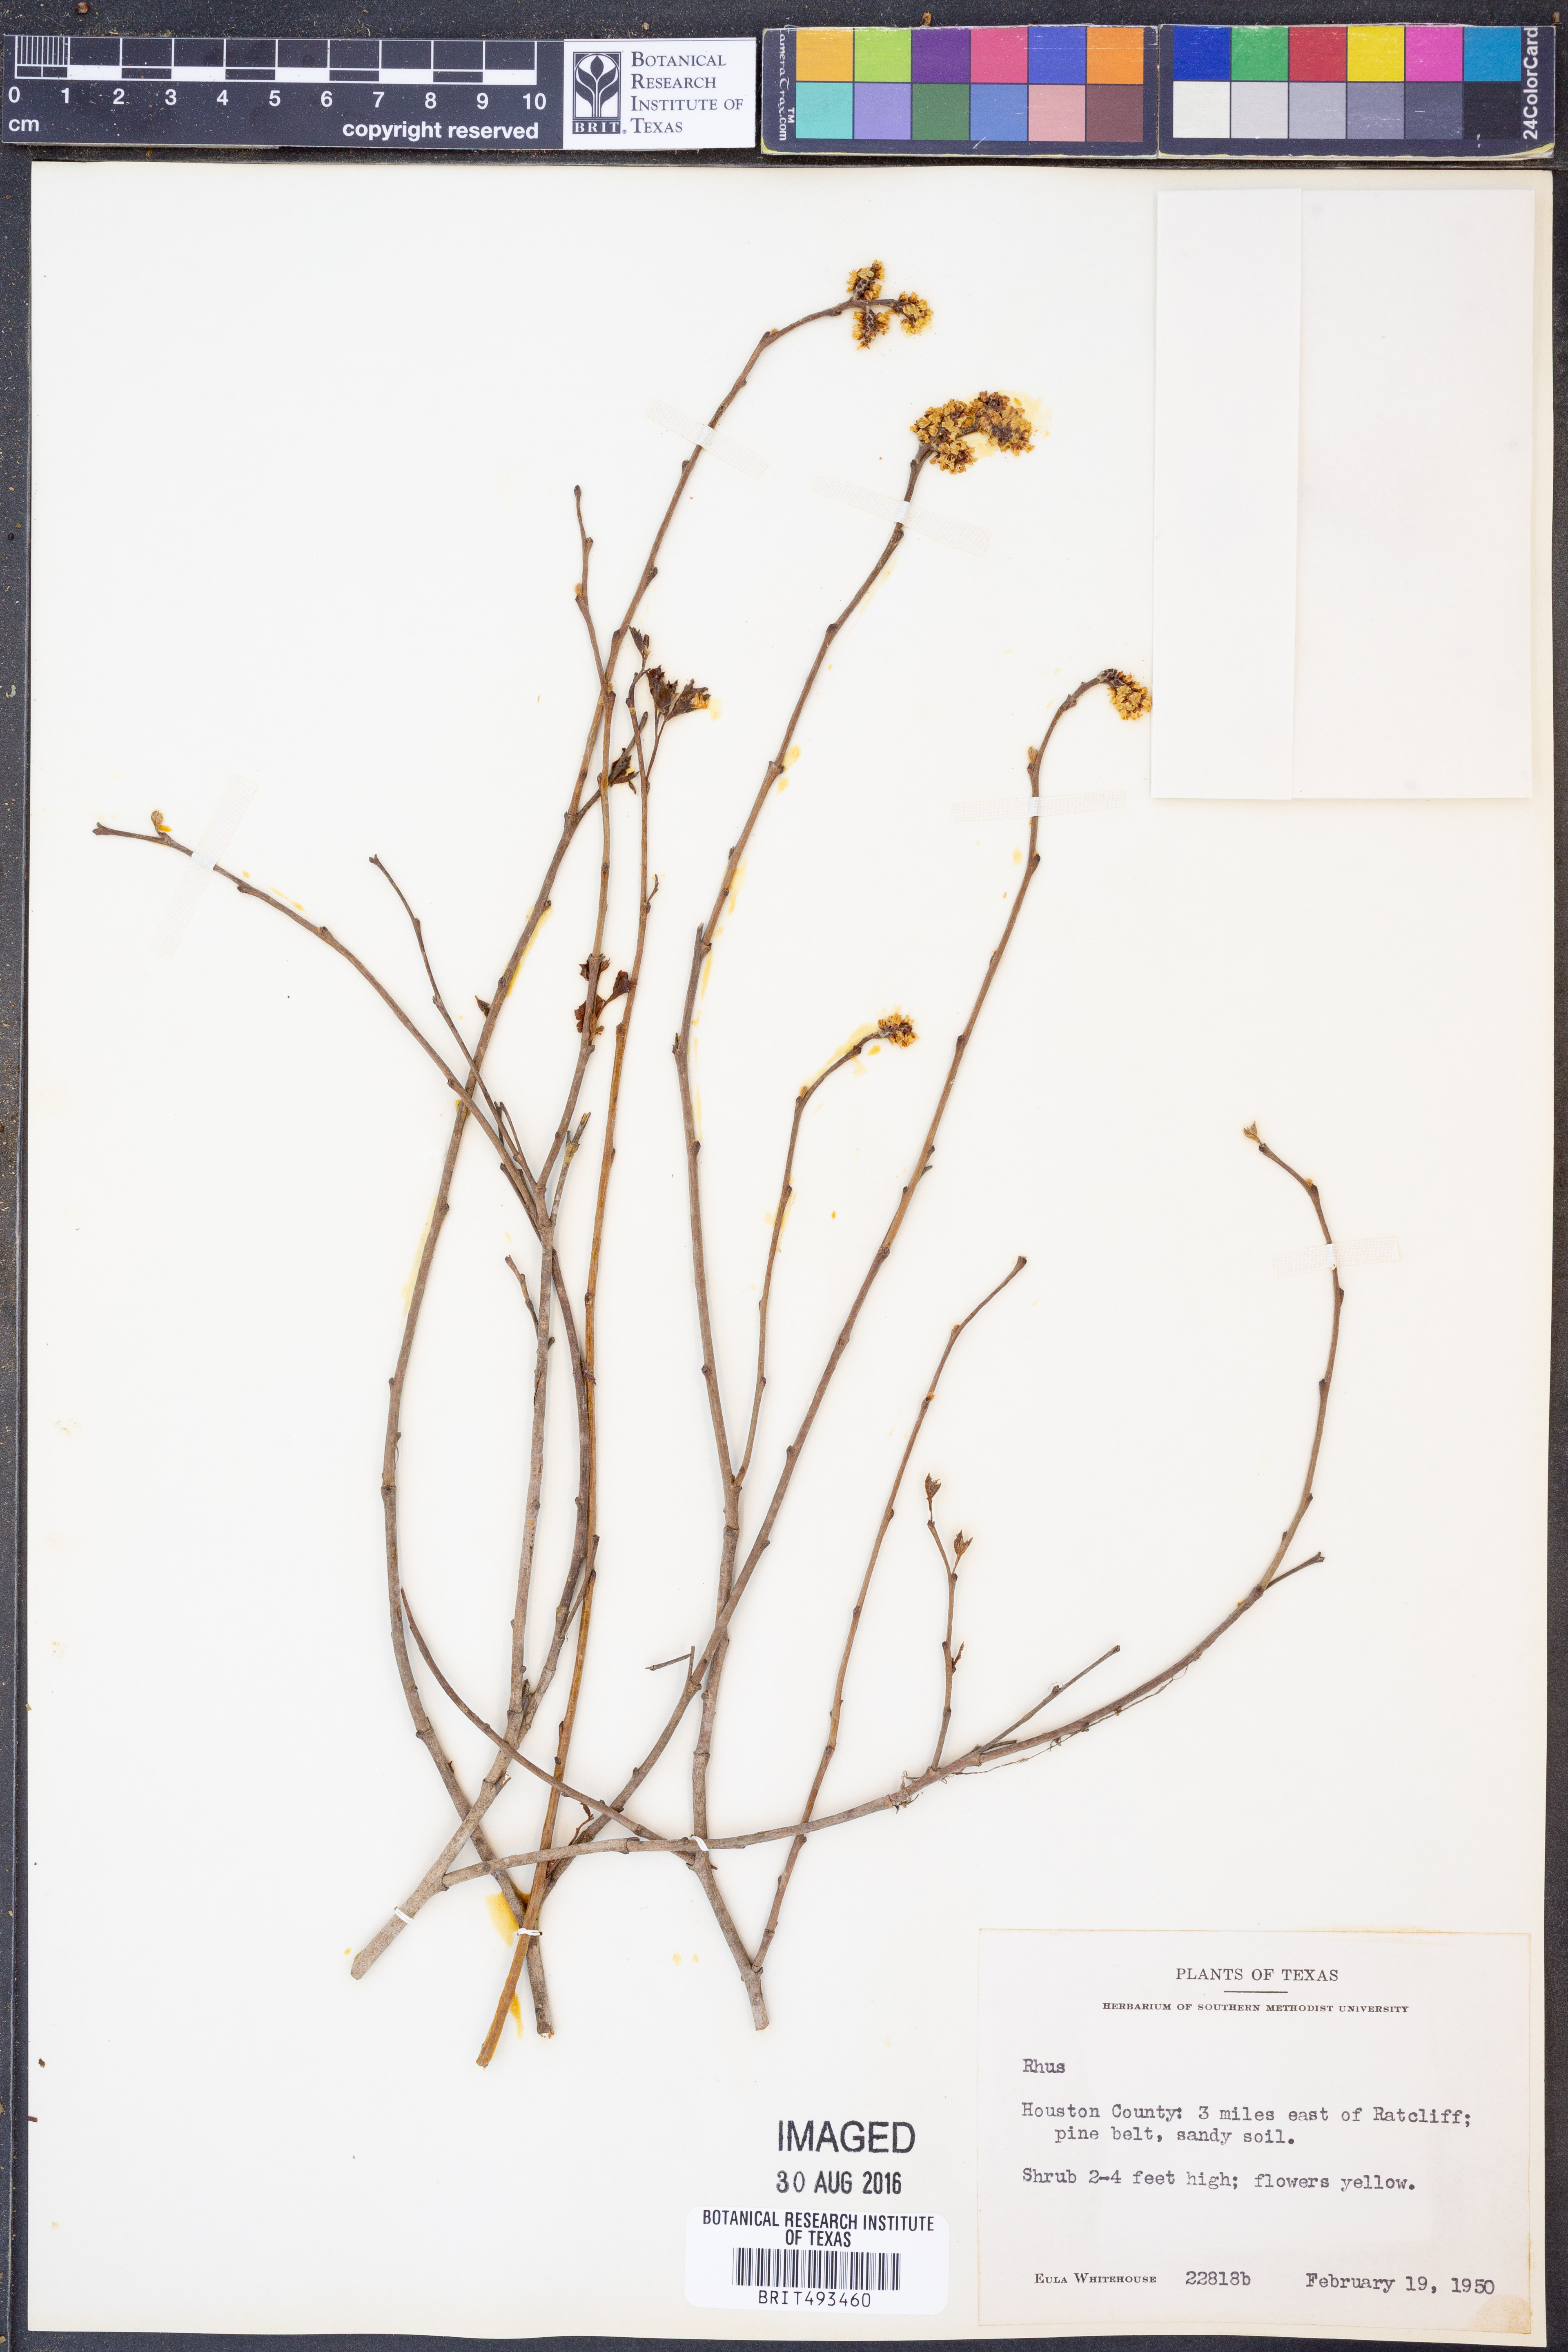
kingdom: Plantae
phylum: Tracheophyta
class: Magnoliopsida
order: Sapindales
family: Anacardiaceae
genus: Rhus
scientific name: Rhus
